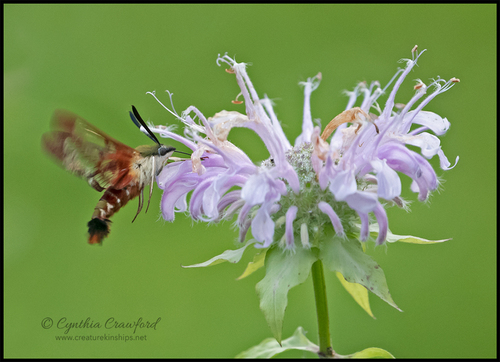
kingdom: Animalia
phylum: Arthropoda
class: Insecta
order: Lepidoptera
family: Sphingidae
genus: Hemaris
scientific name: Hemaris thysbe
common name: Common clear-wing
